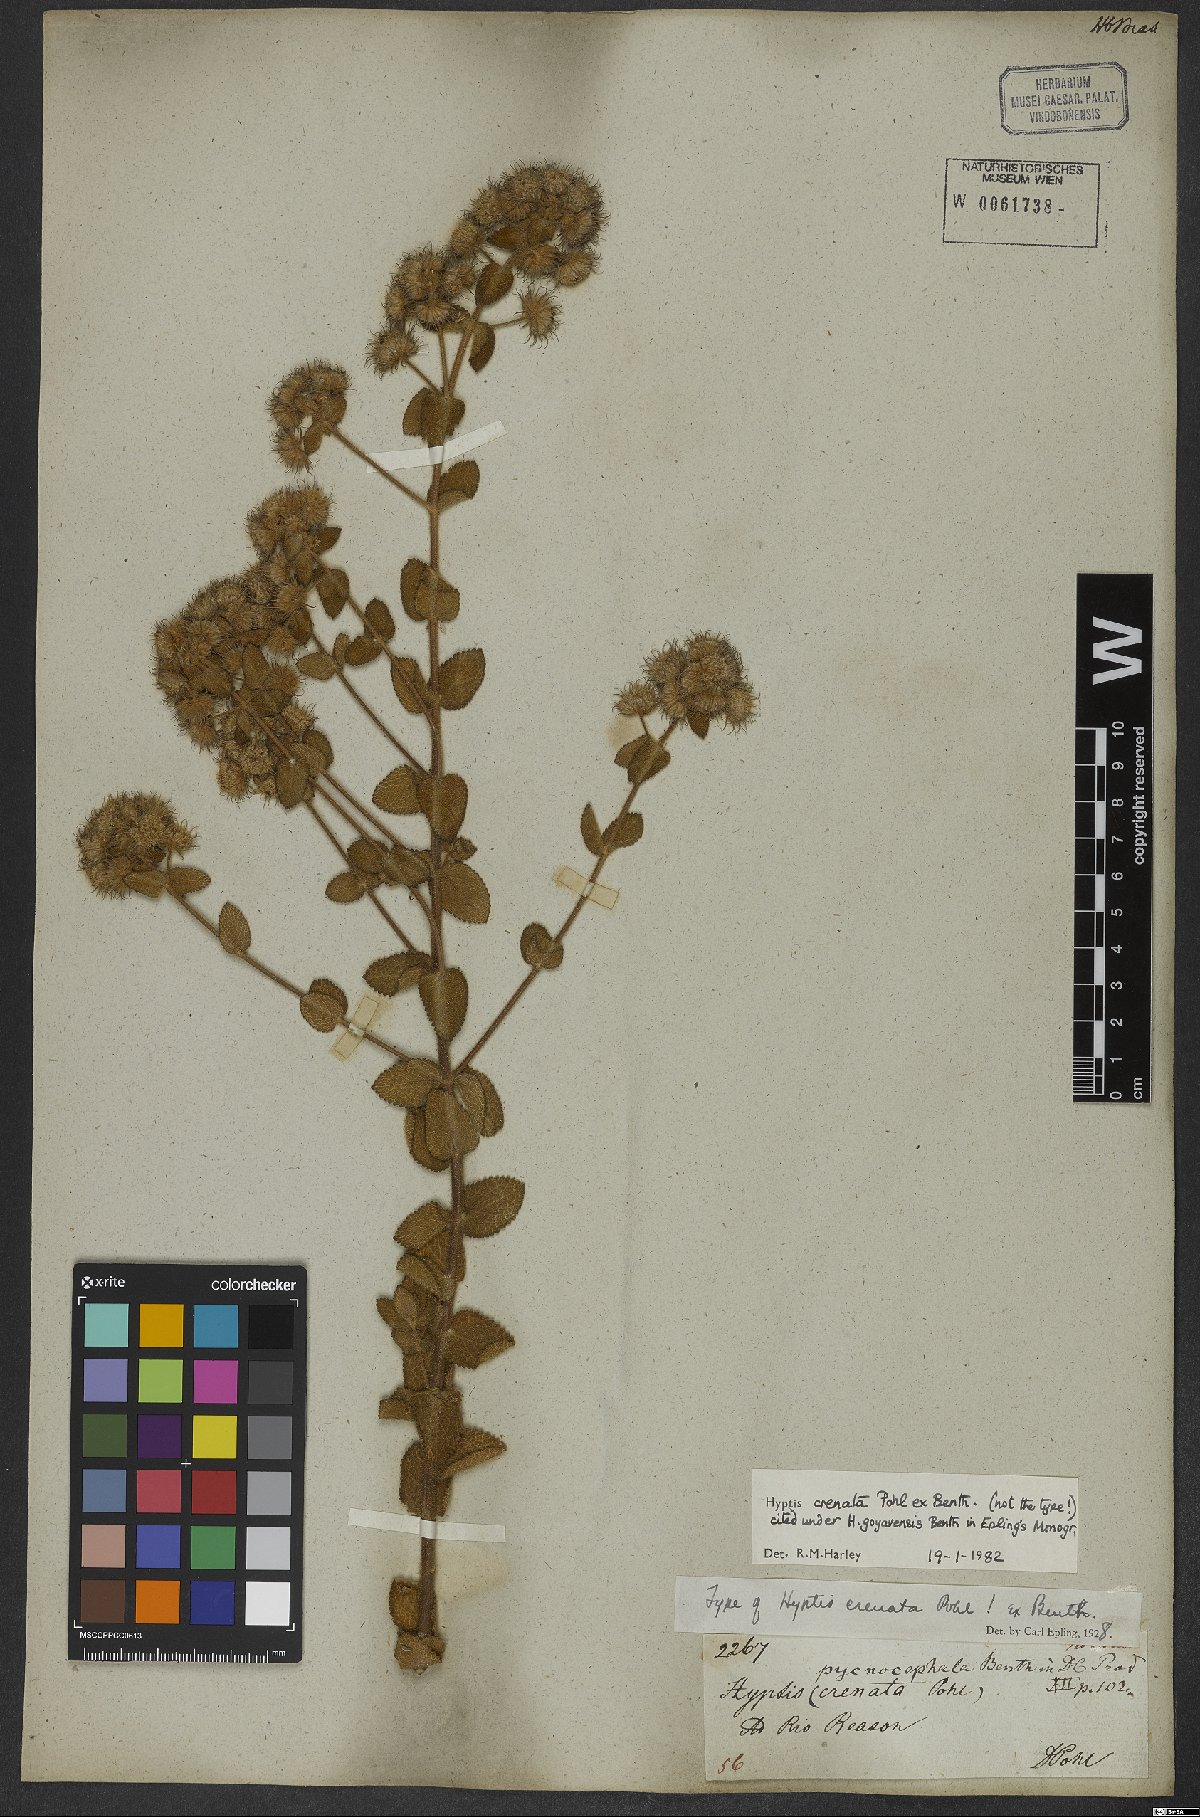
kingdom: Plantae
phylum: Tracheophyta
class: Magnoliopsida
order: Lamiales
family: Lamiaceae
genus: Hyptis
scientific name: Hyptis crenata
